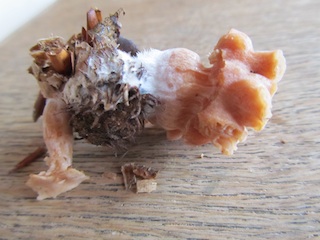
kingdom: Fungi
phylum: Ascomycota
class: Sordariomycetes
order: Hypocreales
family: Hypocreaceae
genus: Hypomyces
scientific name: Hypomyces tubariicola
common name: fnughat-snylteskorpe
